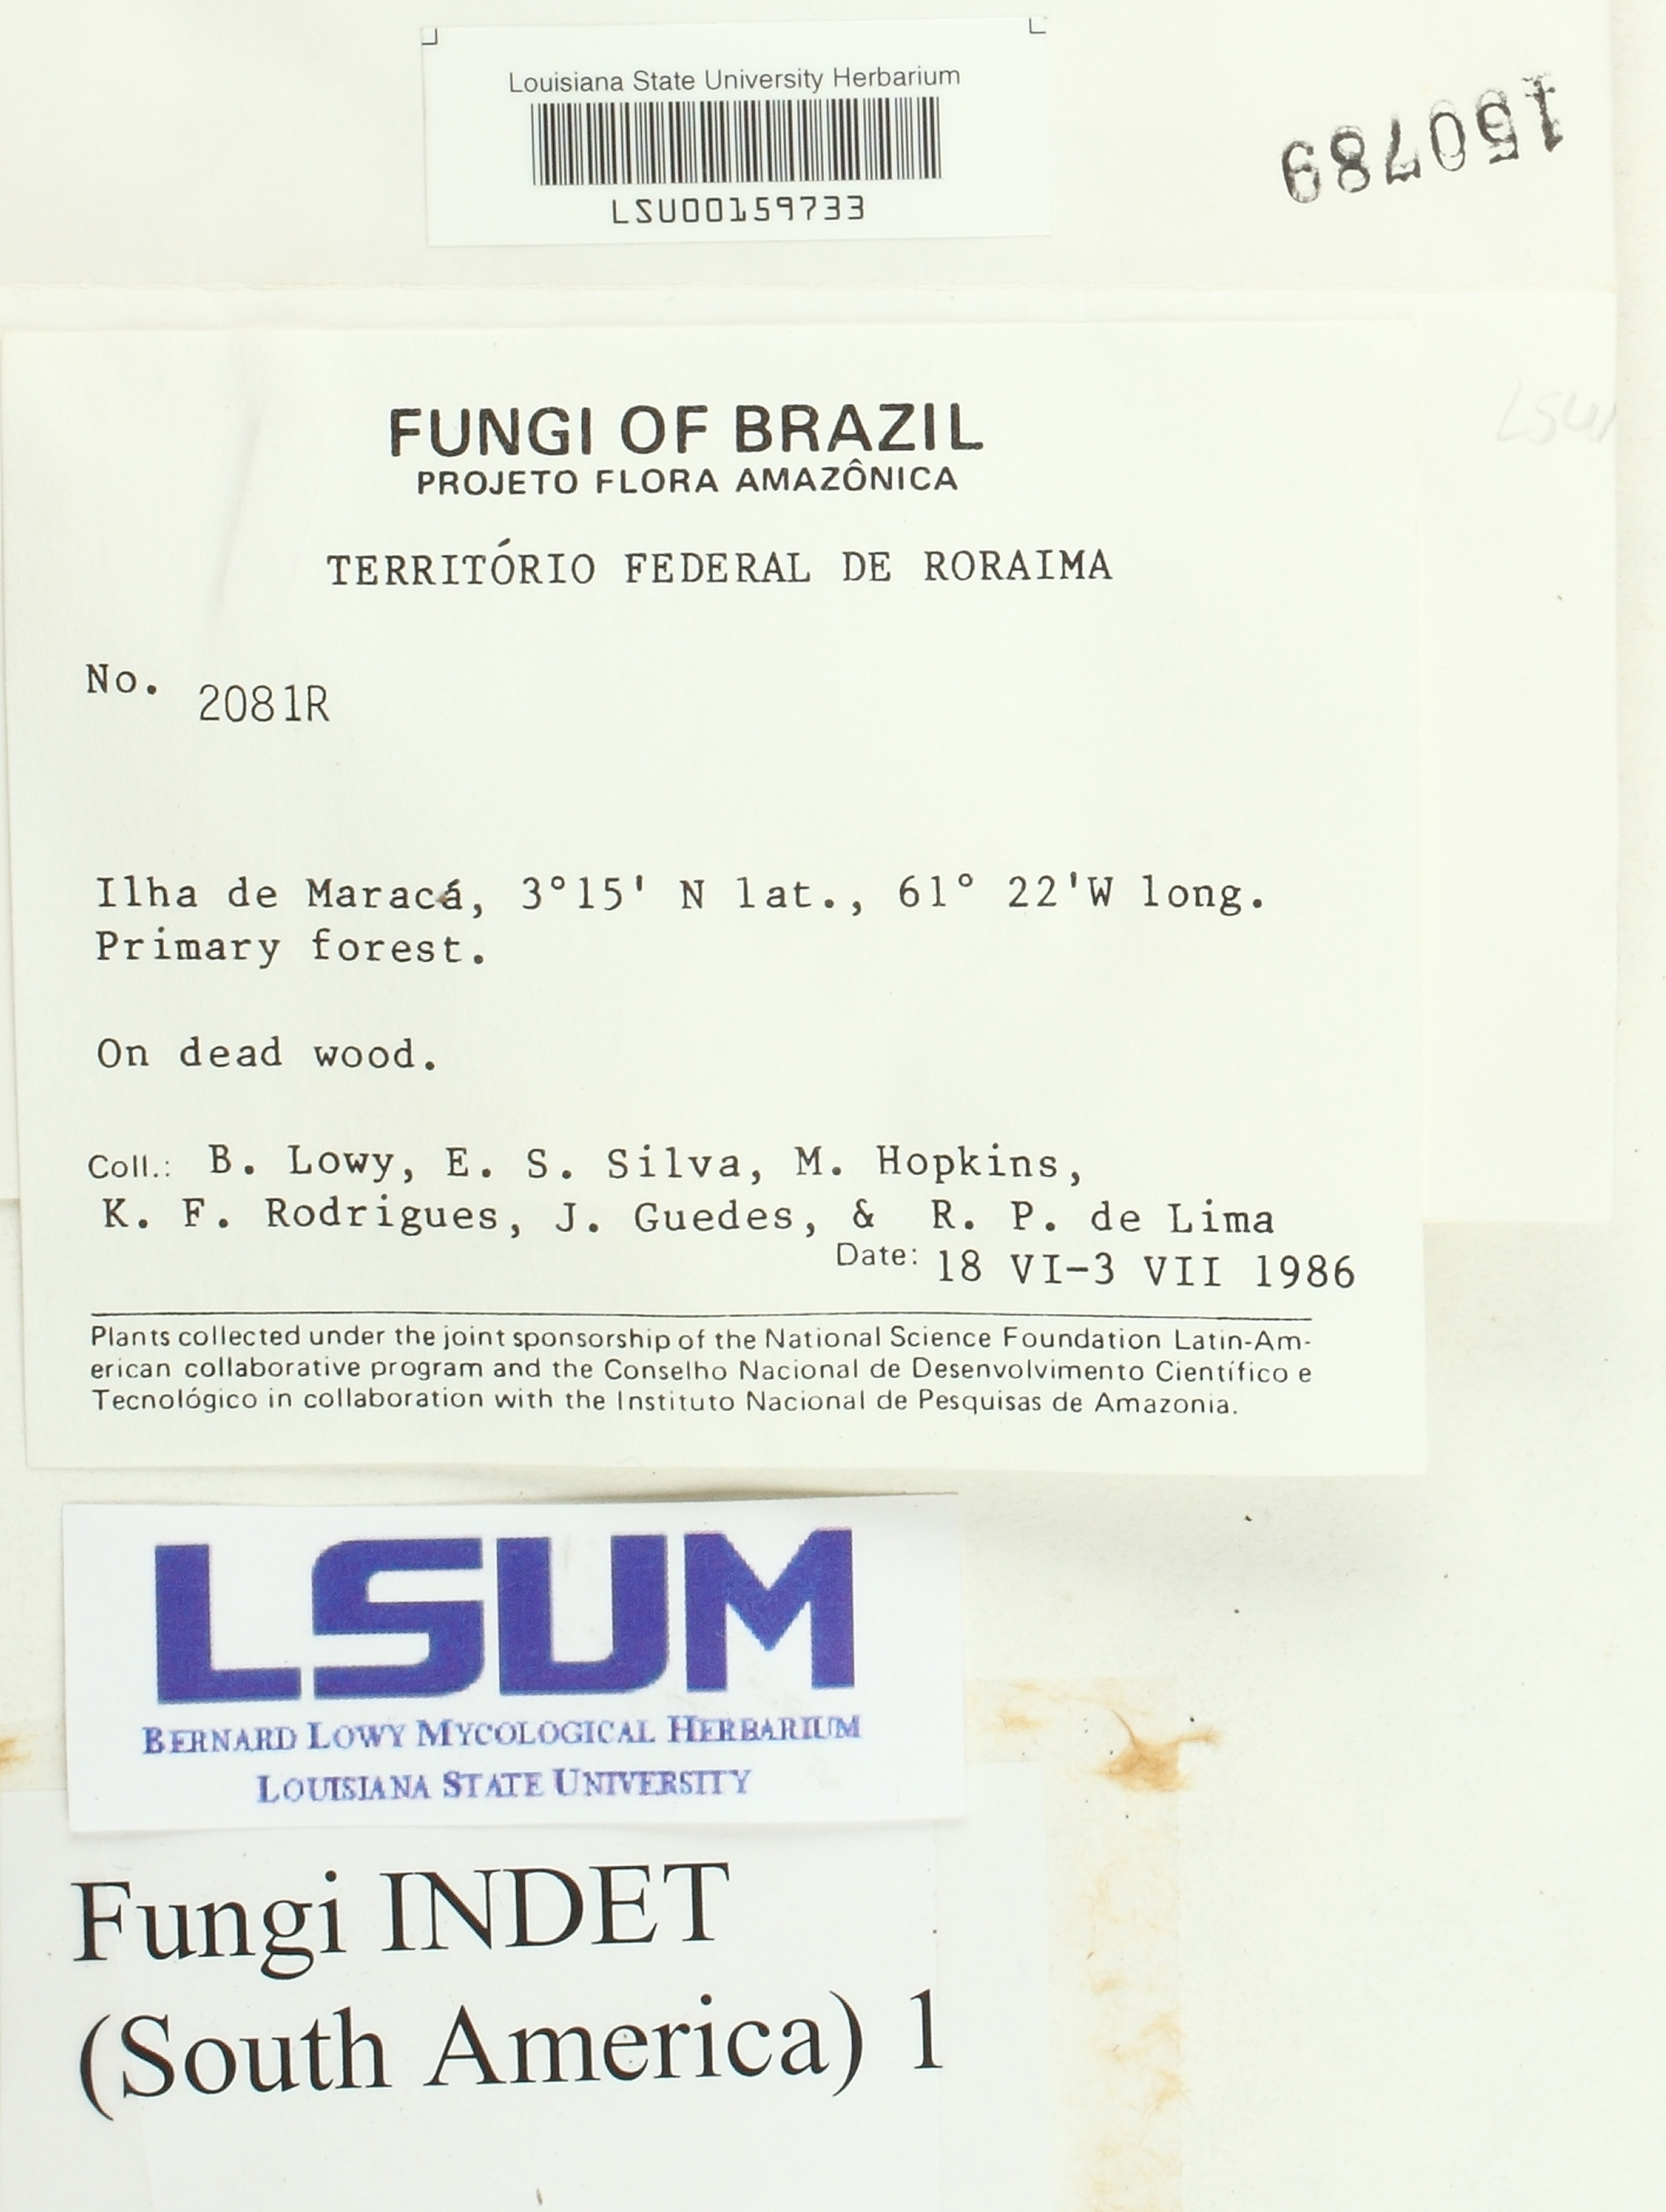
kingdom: Fungi
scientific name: Fungi
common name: Fungi
